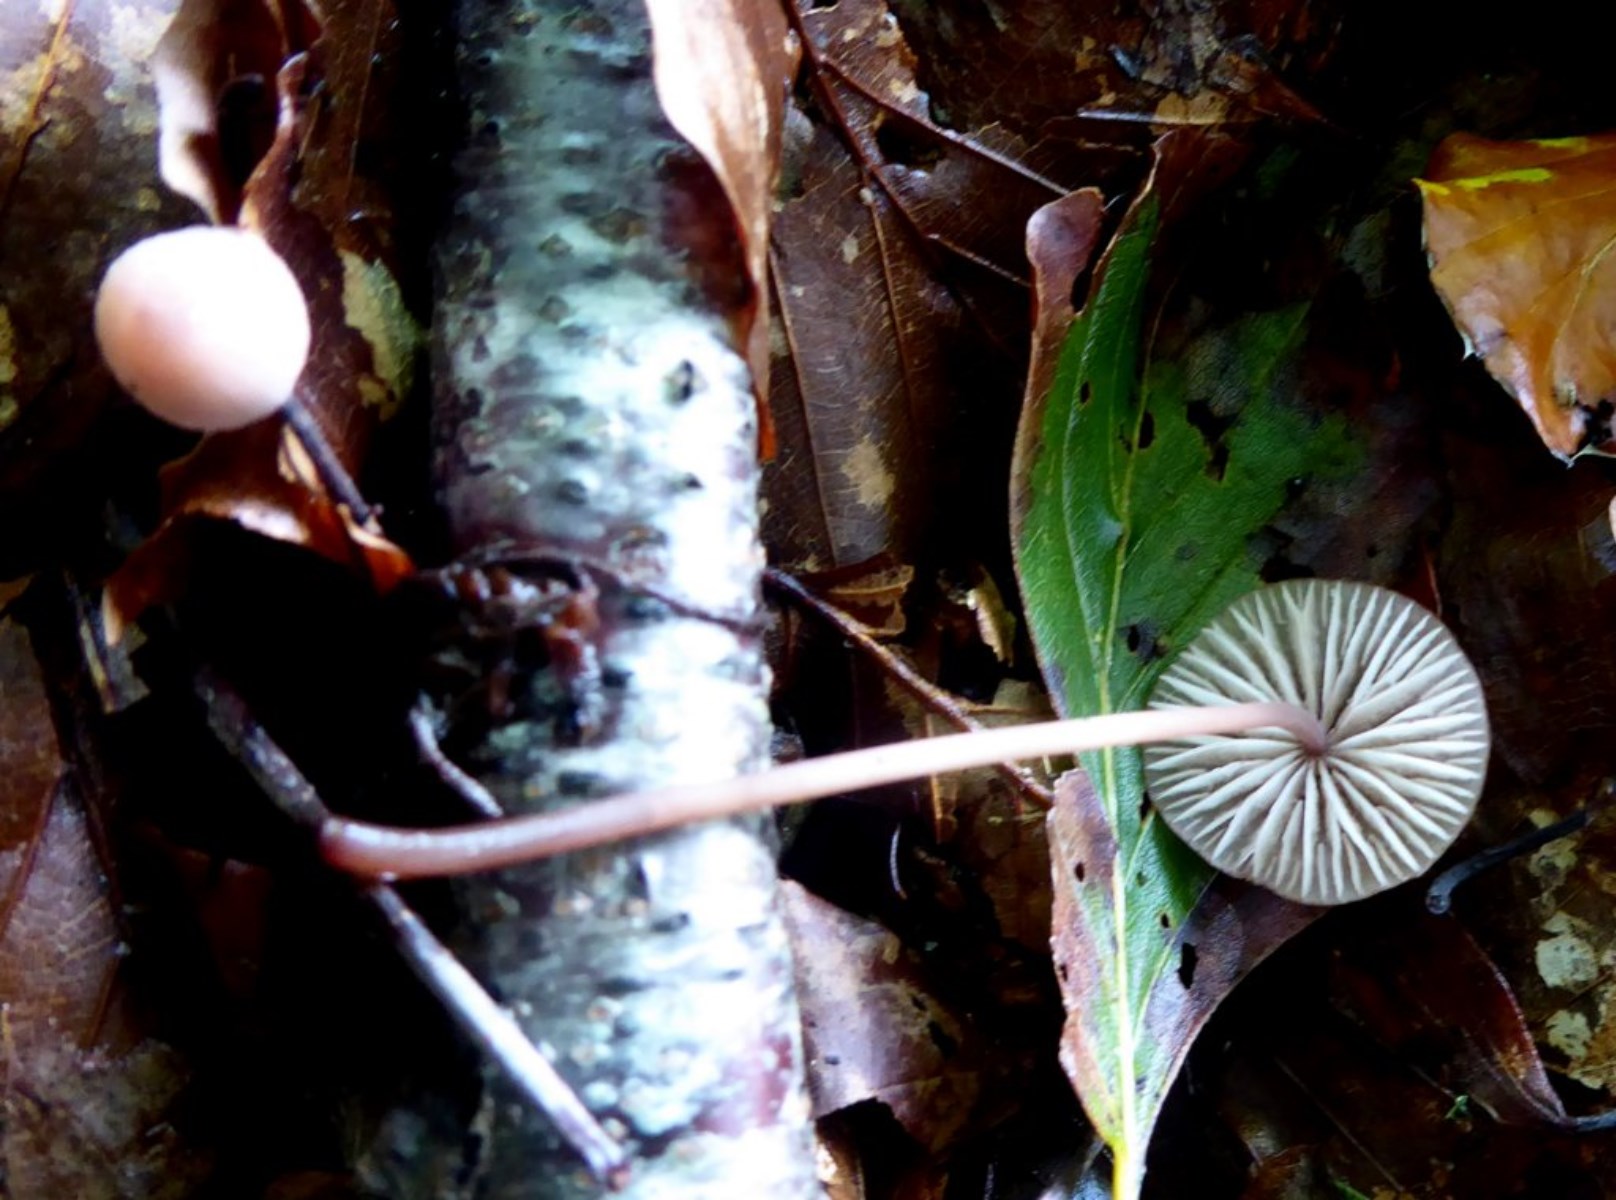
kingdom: Fungi
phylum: Basidiomycota
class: Agaricomycetes
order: Agaricales
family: Mycenaceae
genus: Mycena
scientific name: Mycena sanguinolenta
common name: rødmælket huesvamp
